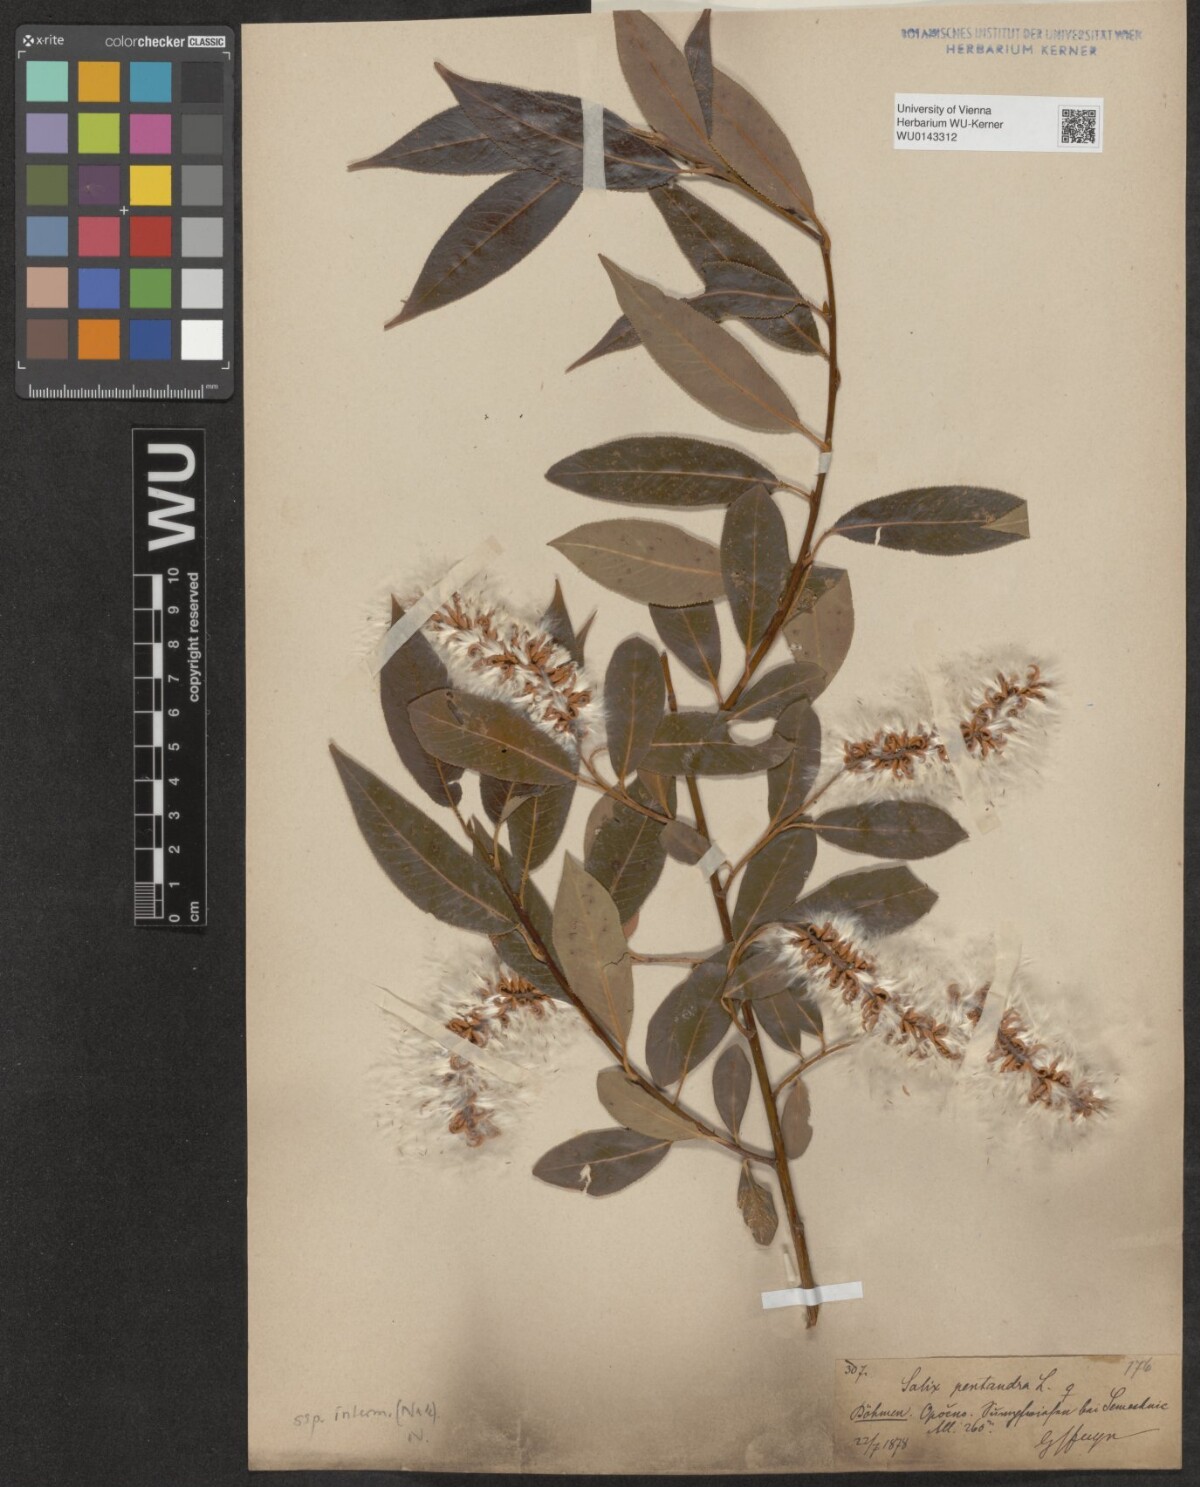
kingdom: Plantae
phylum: Tracheophyta
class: Magnoliopsida
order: Malpighiales
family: Salicaceae
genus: Salix
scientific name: Salix pentandra
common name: Bay willow
